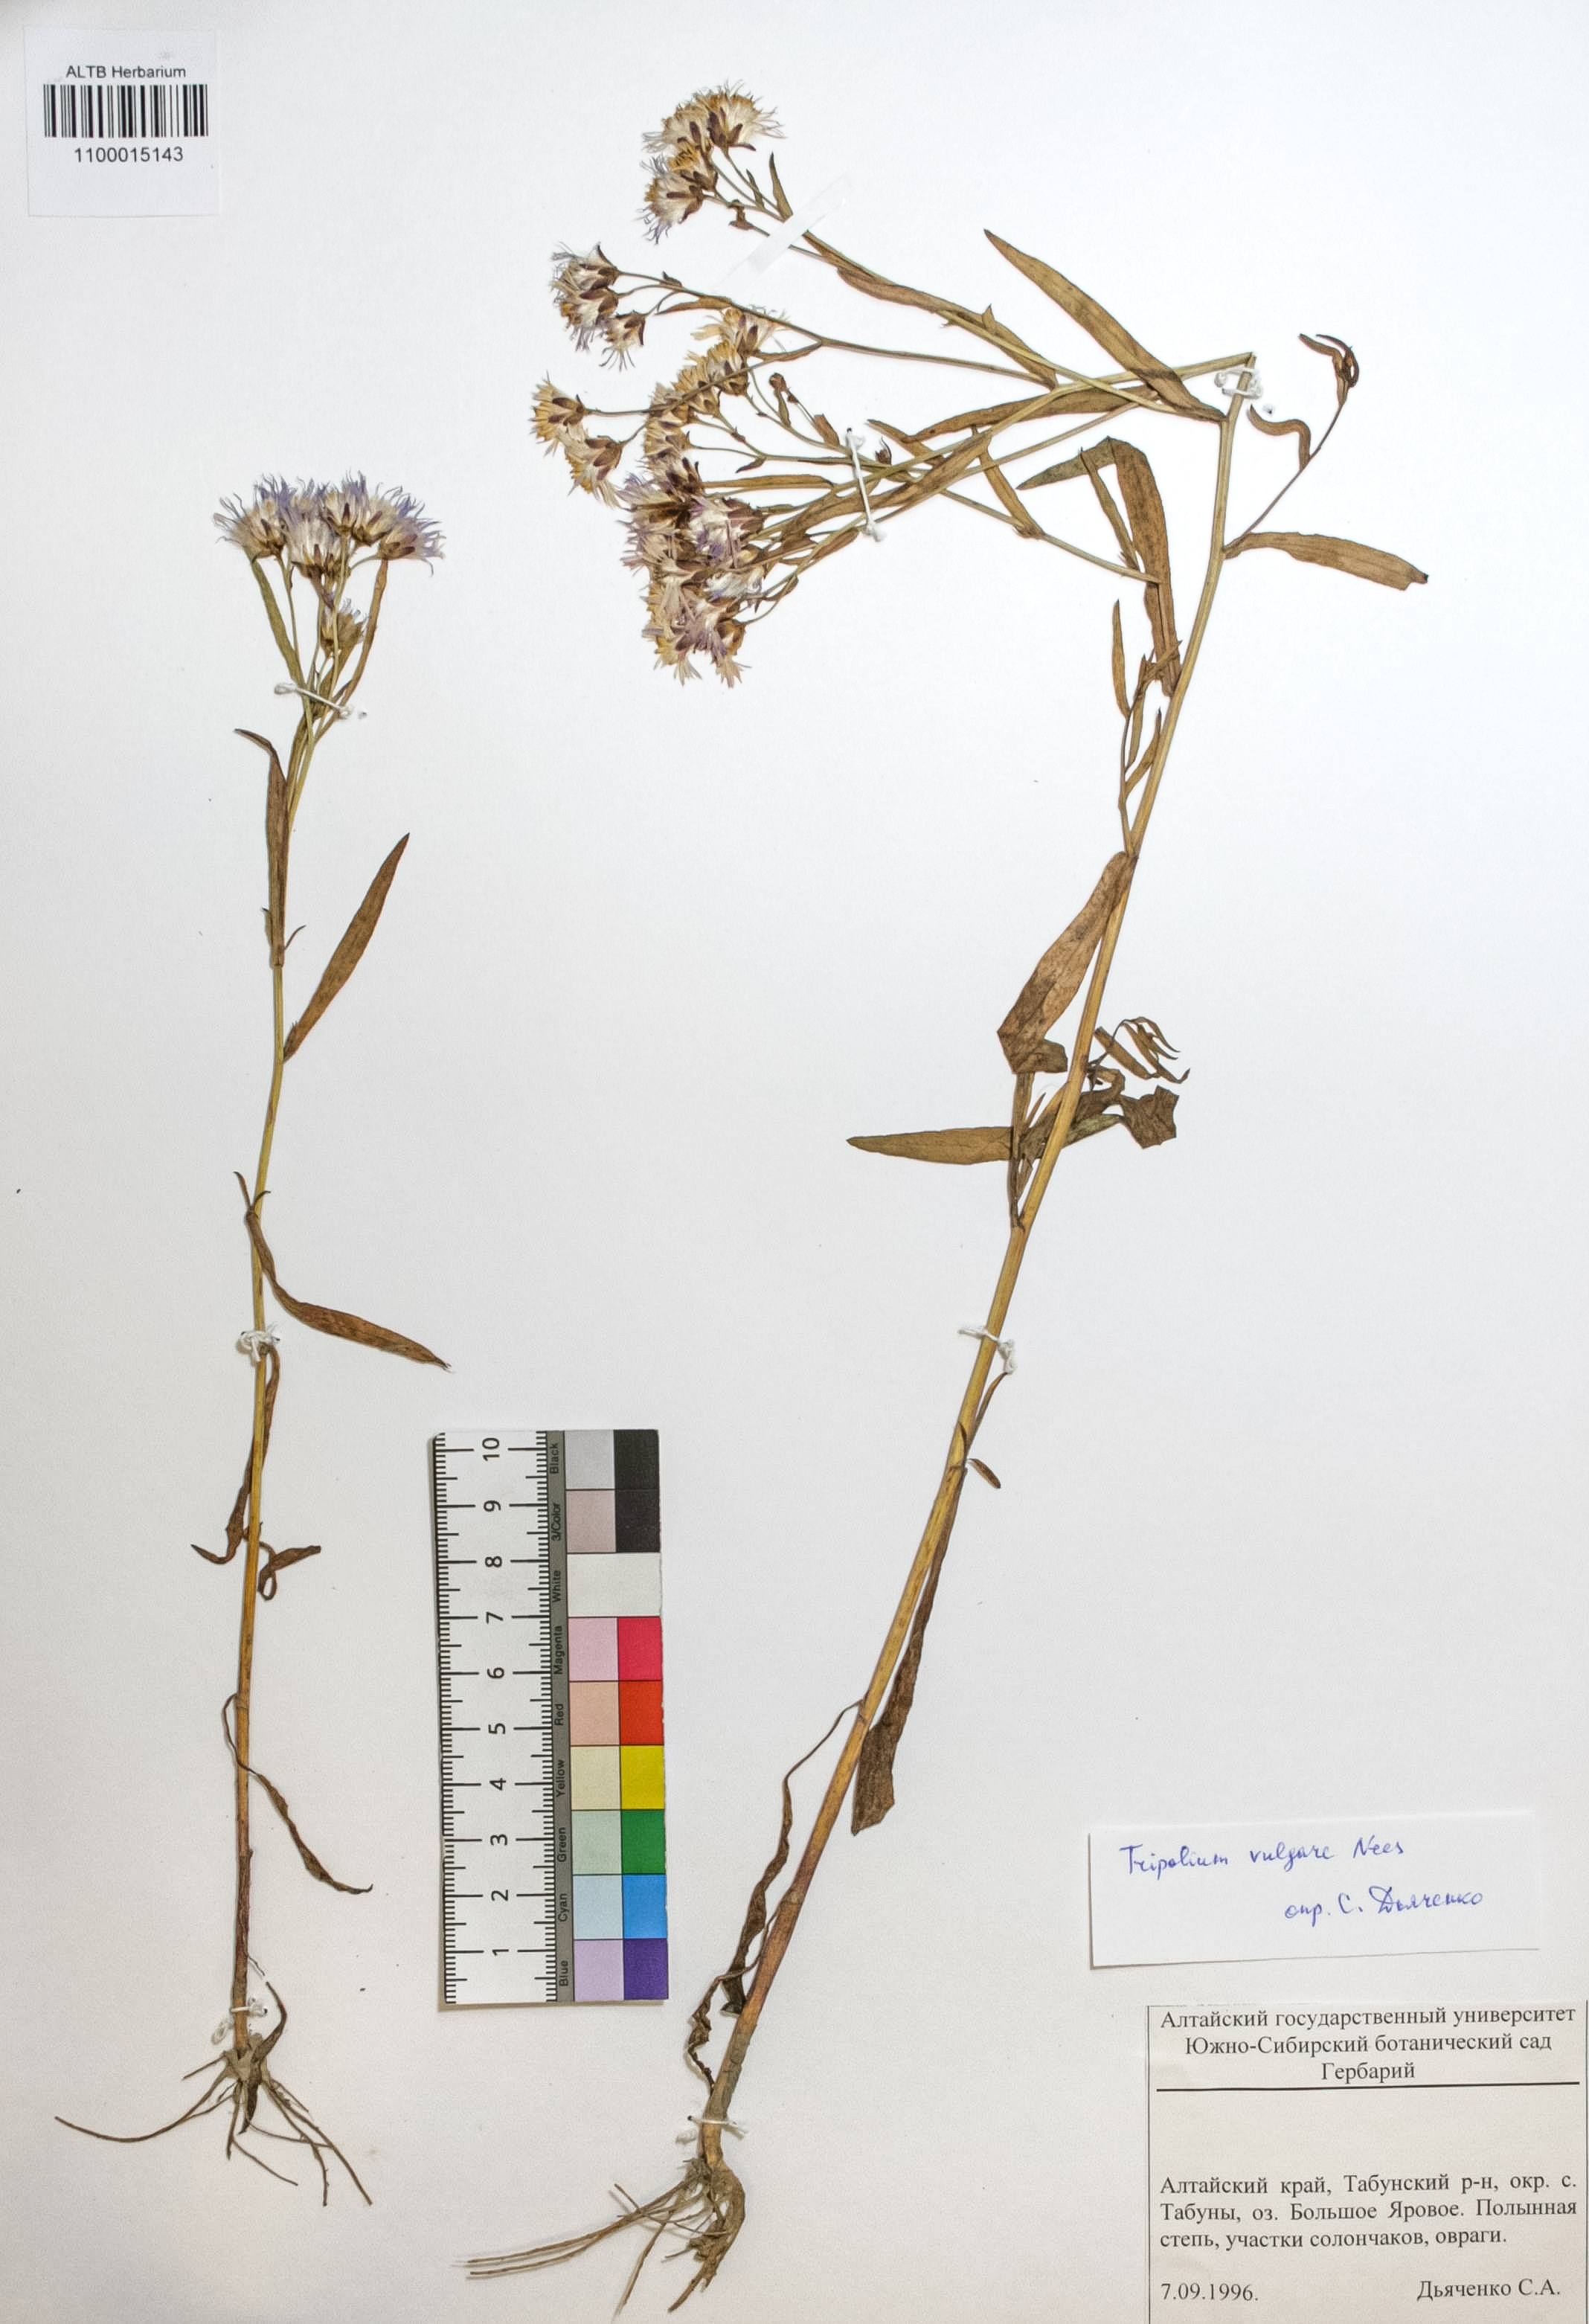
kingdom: Plantae
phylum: Tracheophyta
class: Magnoliopsida
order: Asterales
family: Asteraceae
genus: Tripolium
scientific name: Tripolium pannonicum
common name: Sea aster
